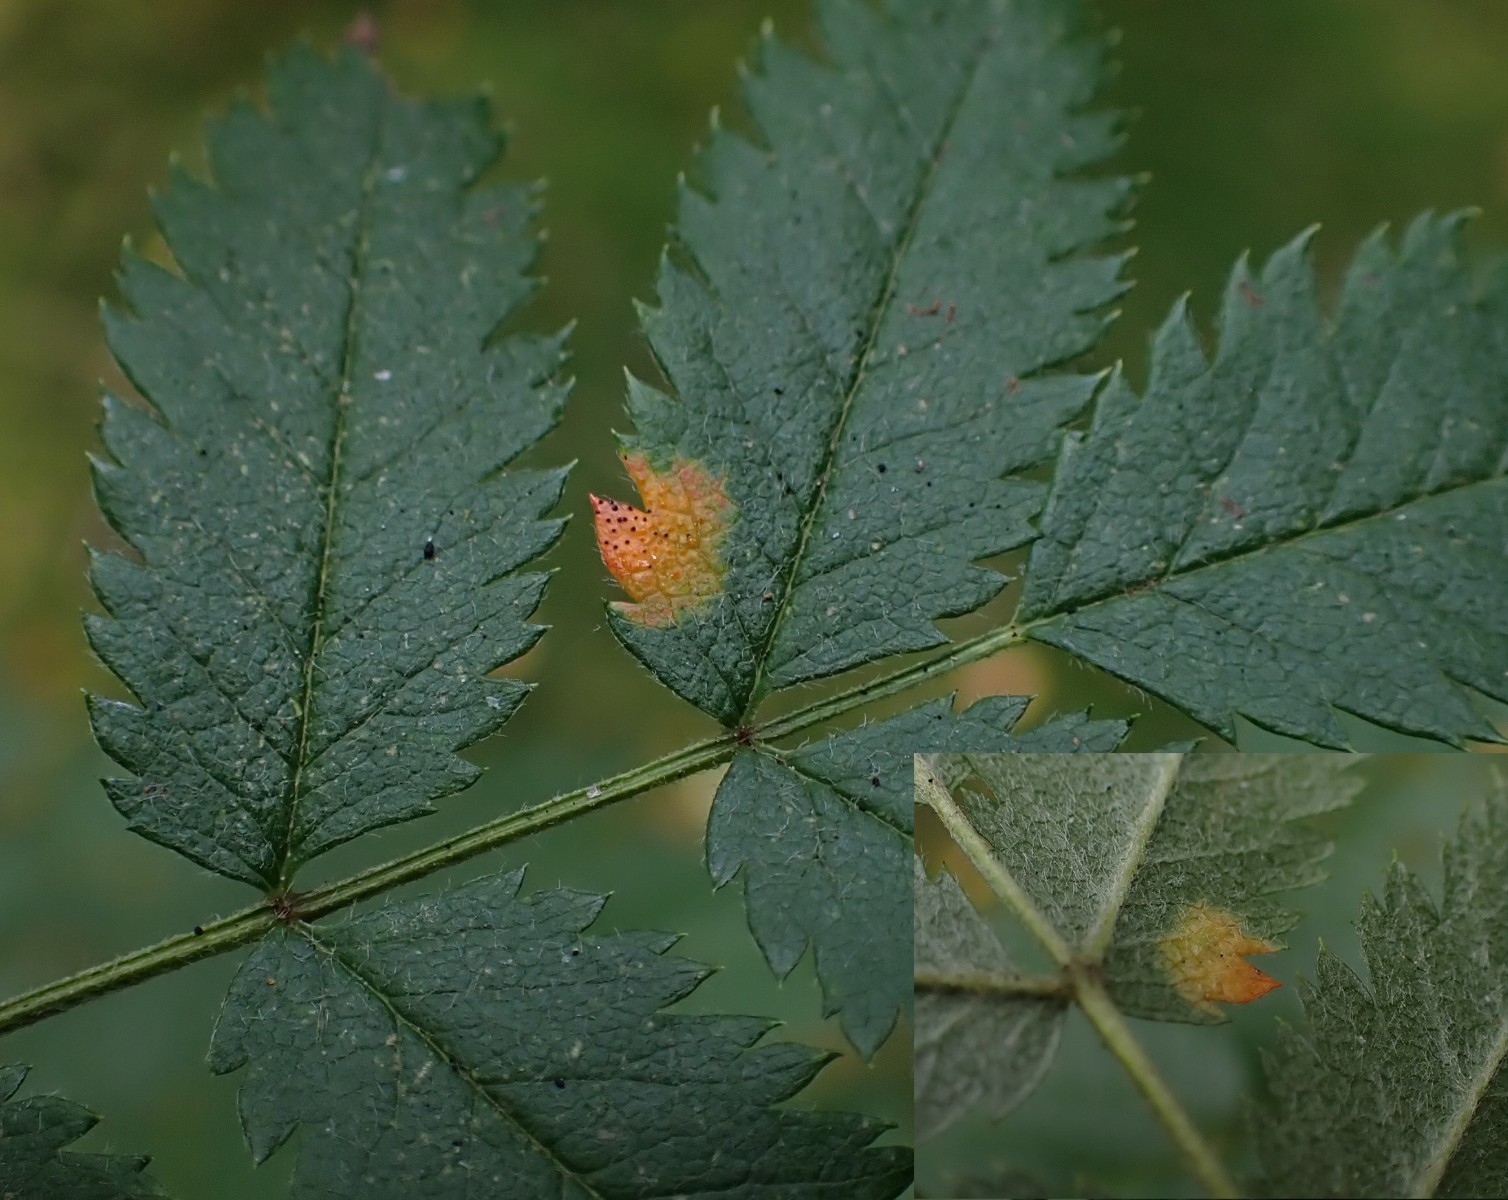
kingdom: Fungi
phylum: Basidiomycota
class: Pucciniomycetes
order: Pucciniales
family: Gymnosporangiaceae
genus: Gymnosporangium
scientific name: Gymnosporangium cornutum
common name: rønnehorn-bævrerust
